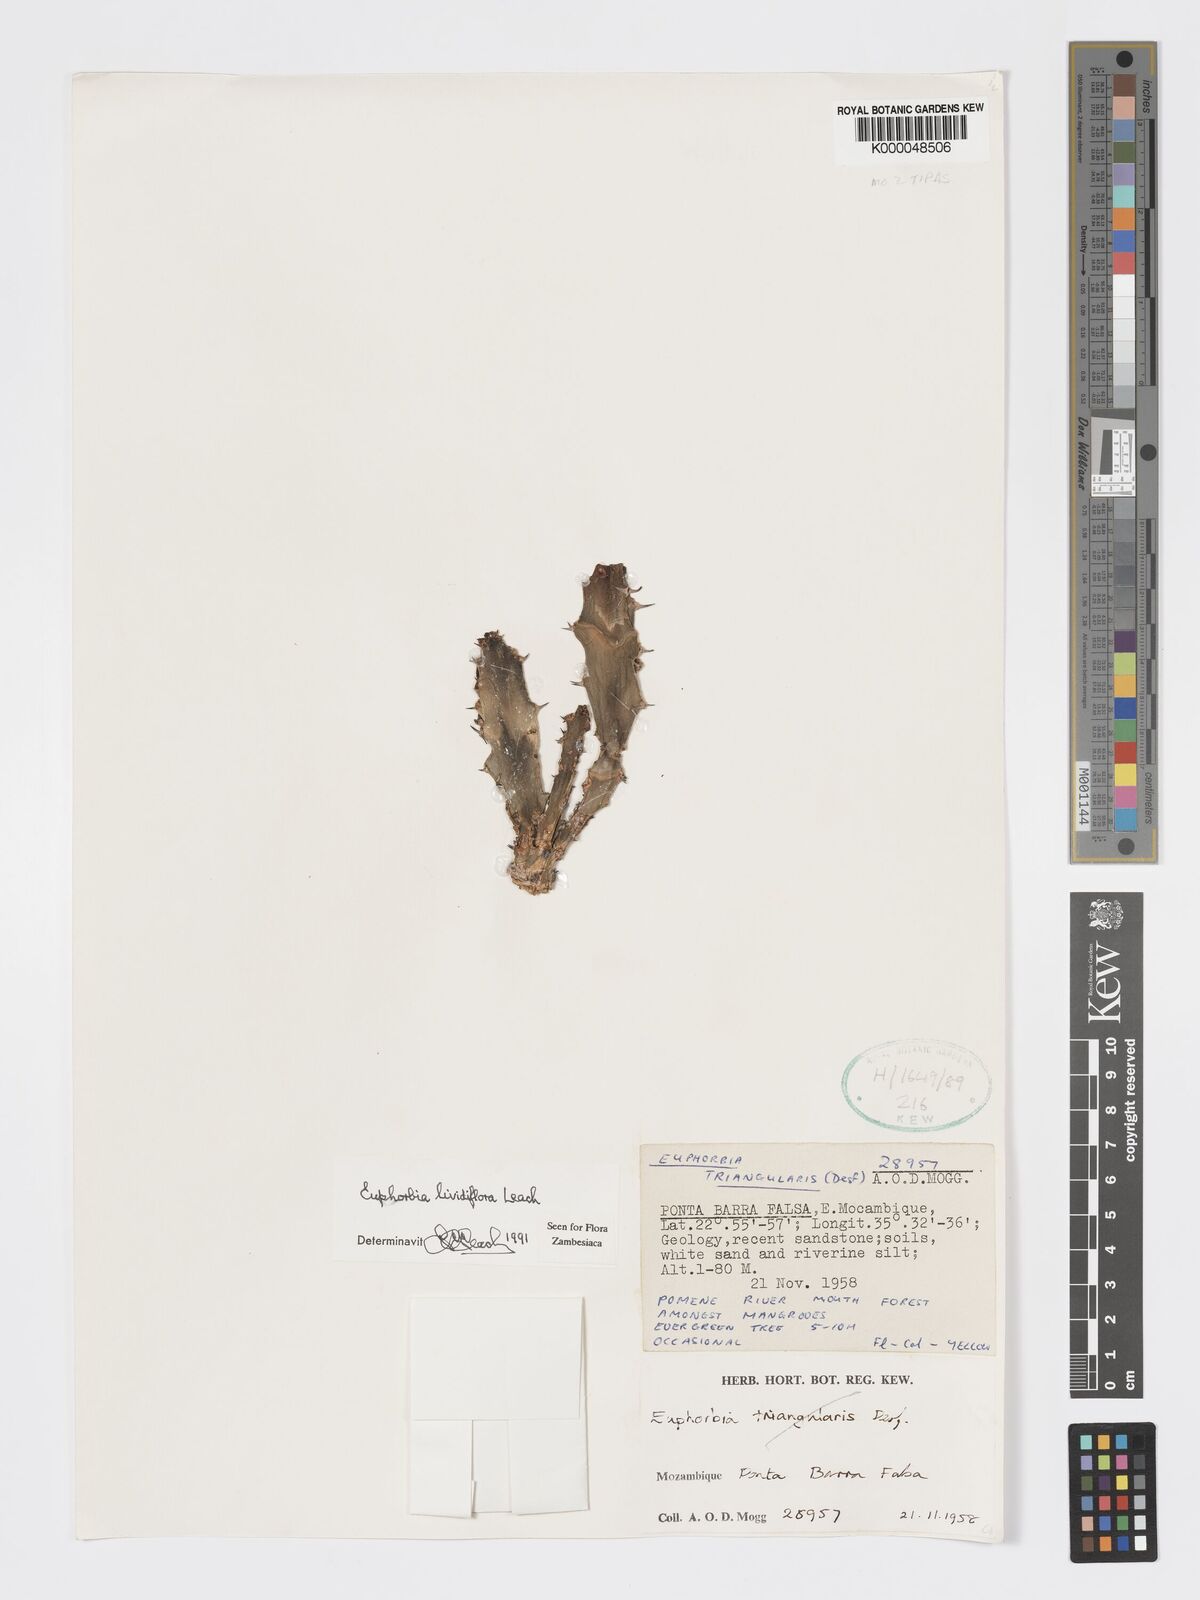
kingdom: Plantae
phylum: Tracheophyta
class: Magnoliopsida
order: Malpighiales
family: Euphorbiaceae
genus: Euphorbia
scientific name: Euphorbia lividiflora
